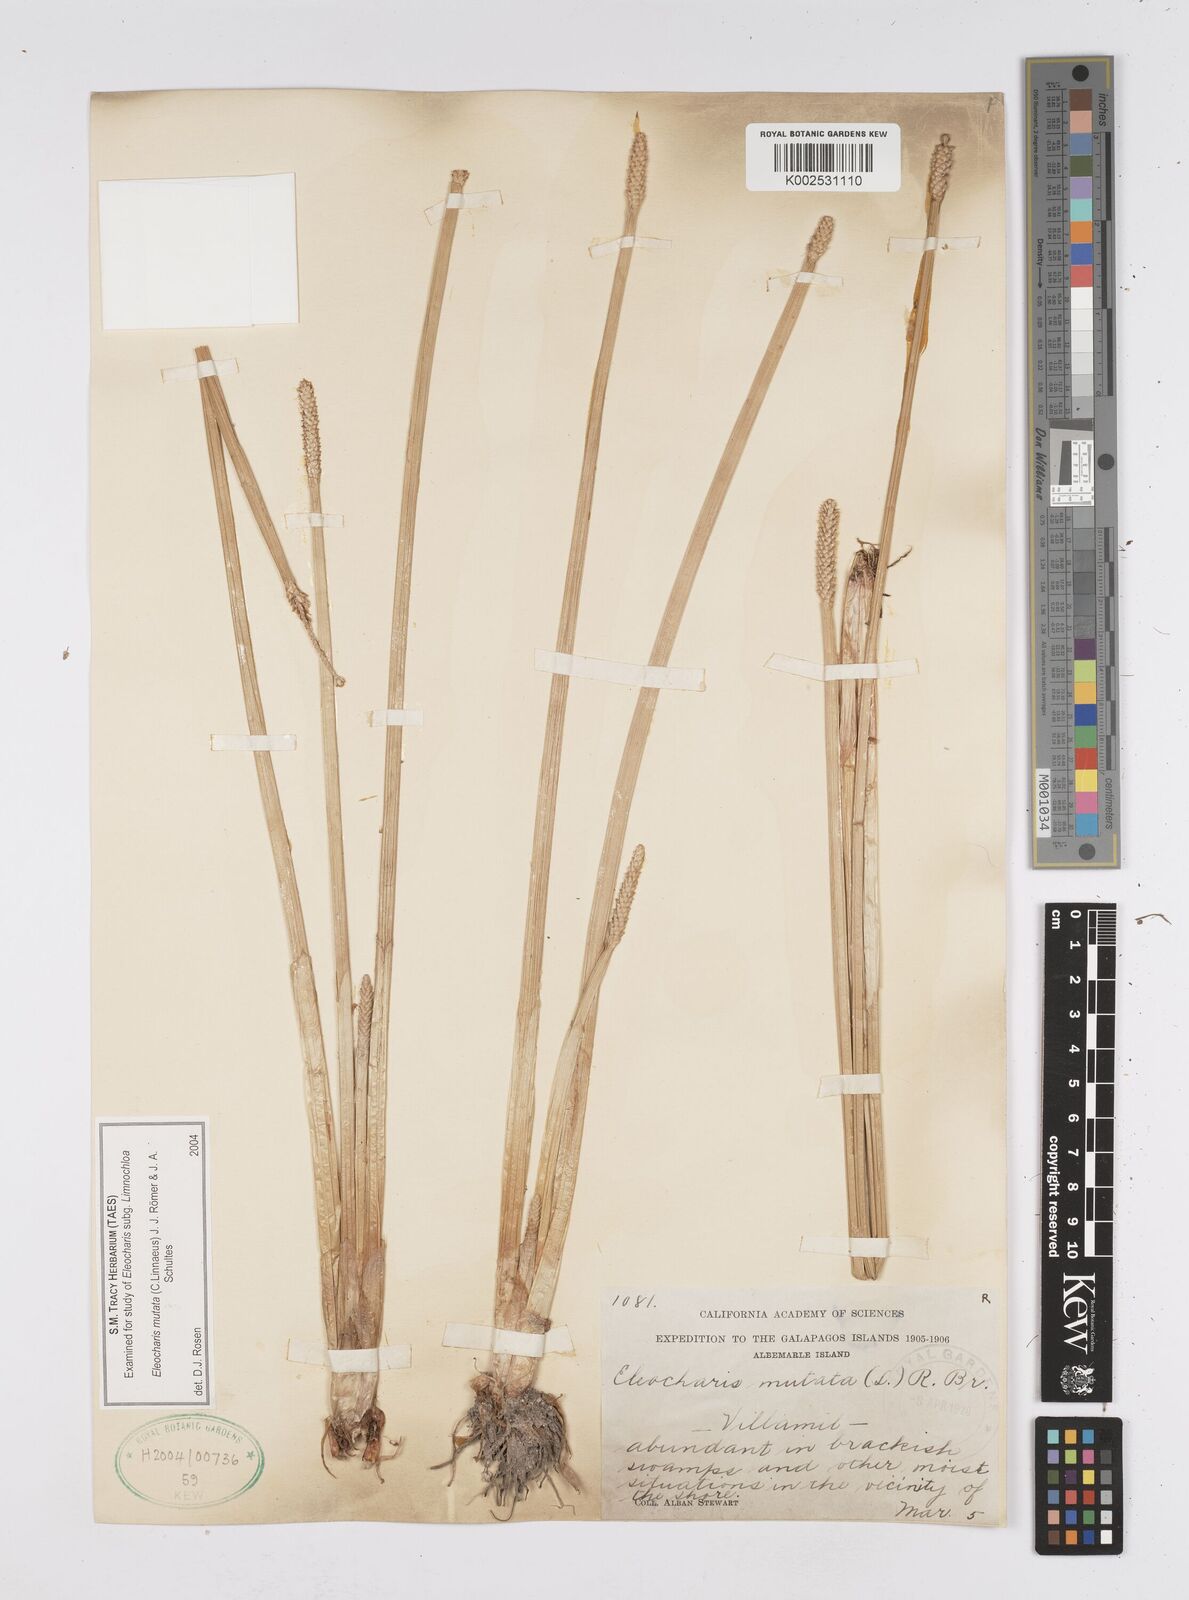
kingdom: Plantae
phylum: Tracheophyta
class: Liliopsida
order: Poales
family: Cyperaceae
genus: Eleocharis
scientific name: Eleocharis mutata
